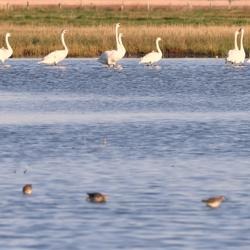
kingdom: Animalia
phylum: Chordata
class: Aves
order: Anseriformes
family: Anatidae
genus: Cygnus
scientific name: Cygnus olor
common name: Knopsvane
